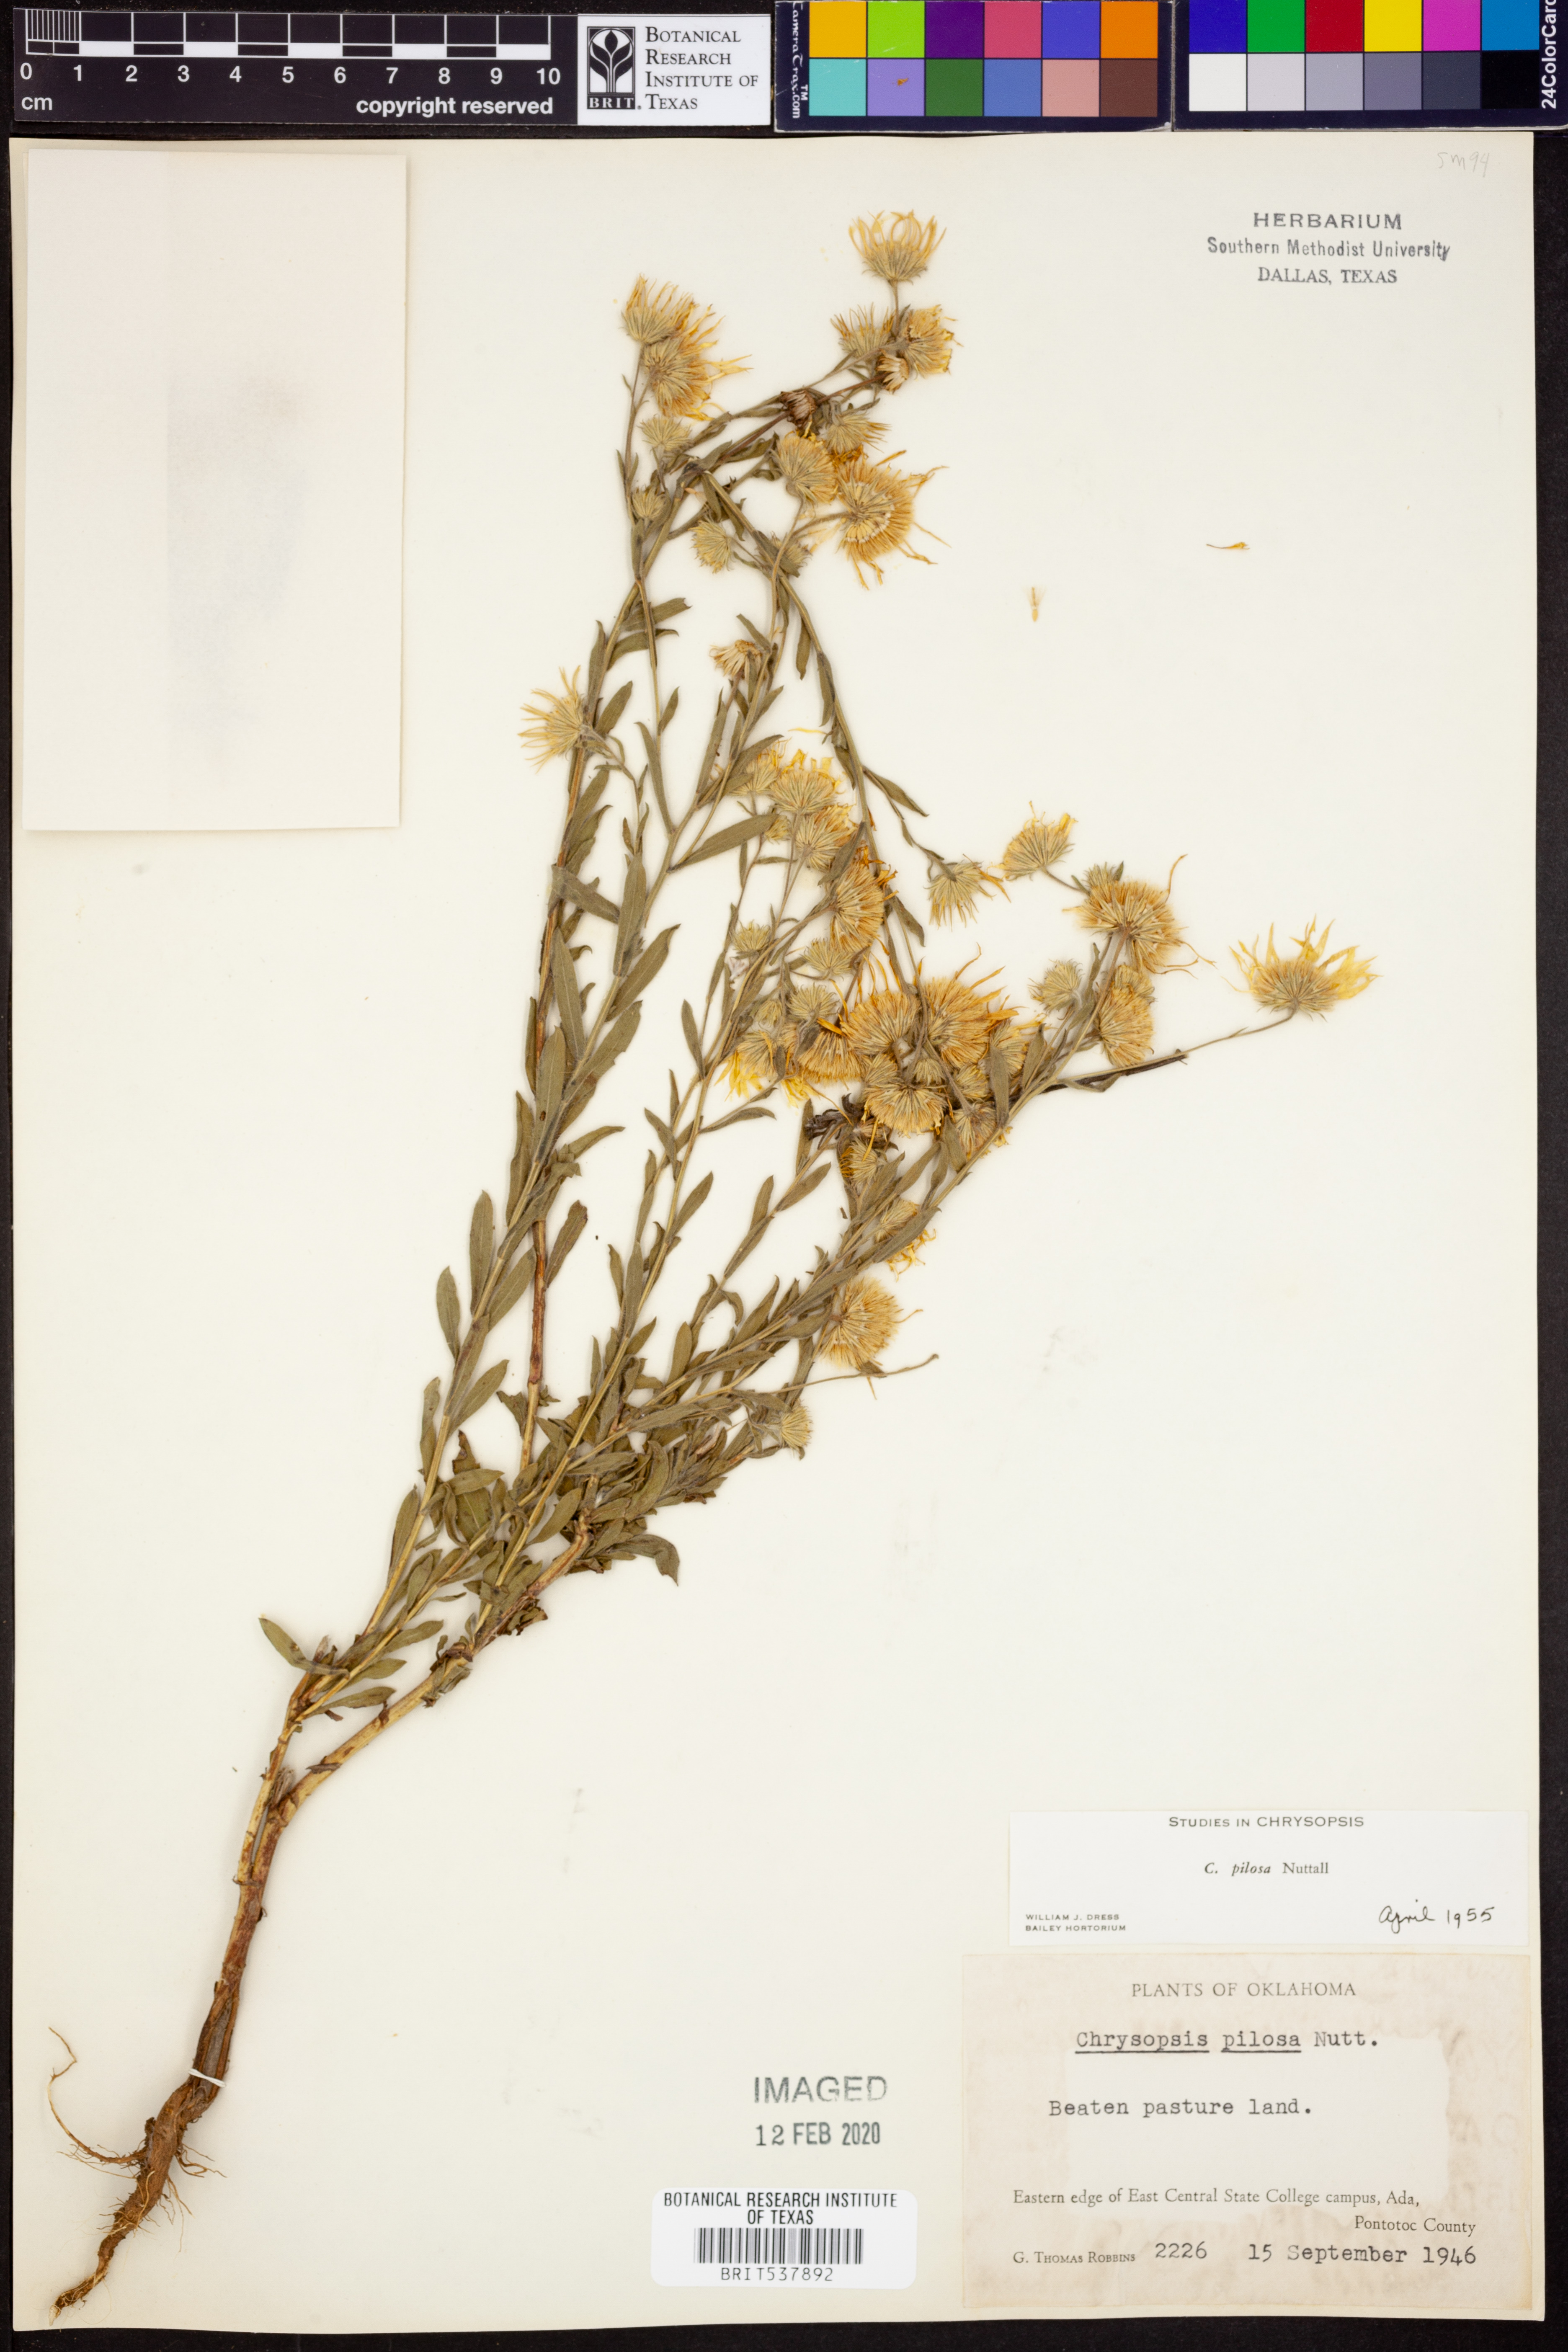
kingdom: Plantae
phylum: Tracheophyta
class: Magnoliopsida
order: Asterales
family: Asteraceae
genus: Bradburia
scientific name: Bradburia pilosa
